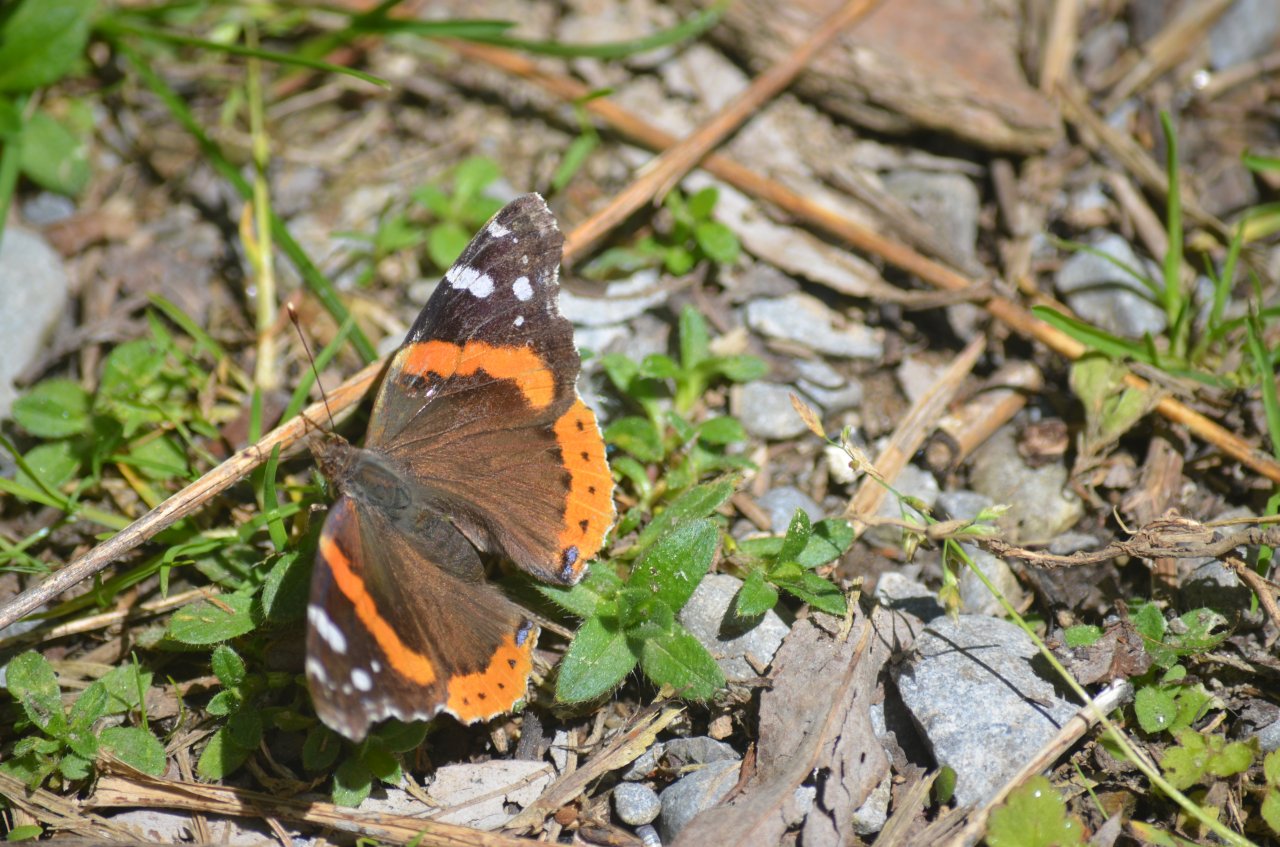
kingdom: Animalia
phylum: Arthropoda
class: Insecta
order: Lepidoptera
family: Nymphalidae
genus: Vanessa
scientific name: Vanessa atalanta
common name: Red Admiral
